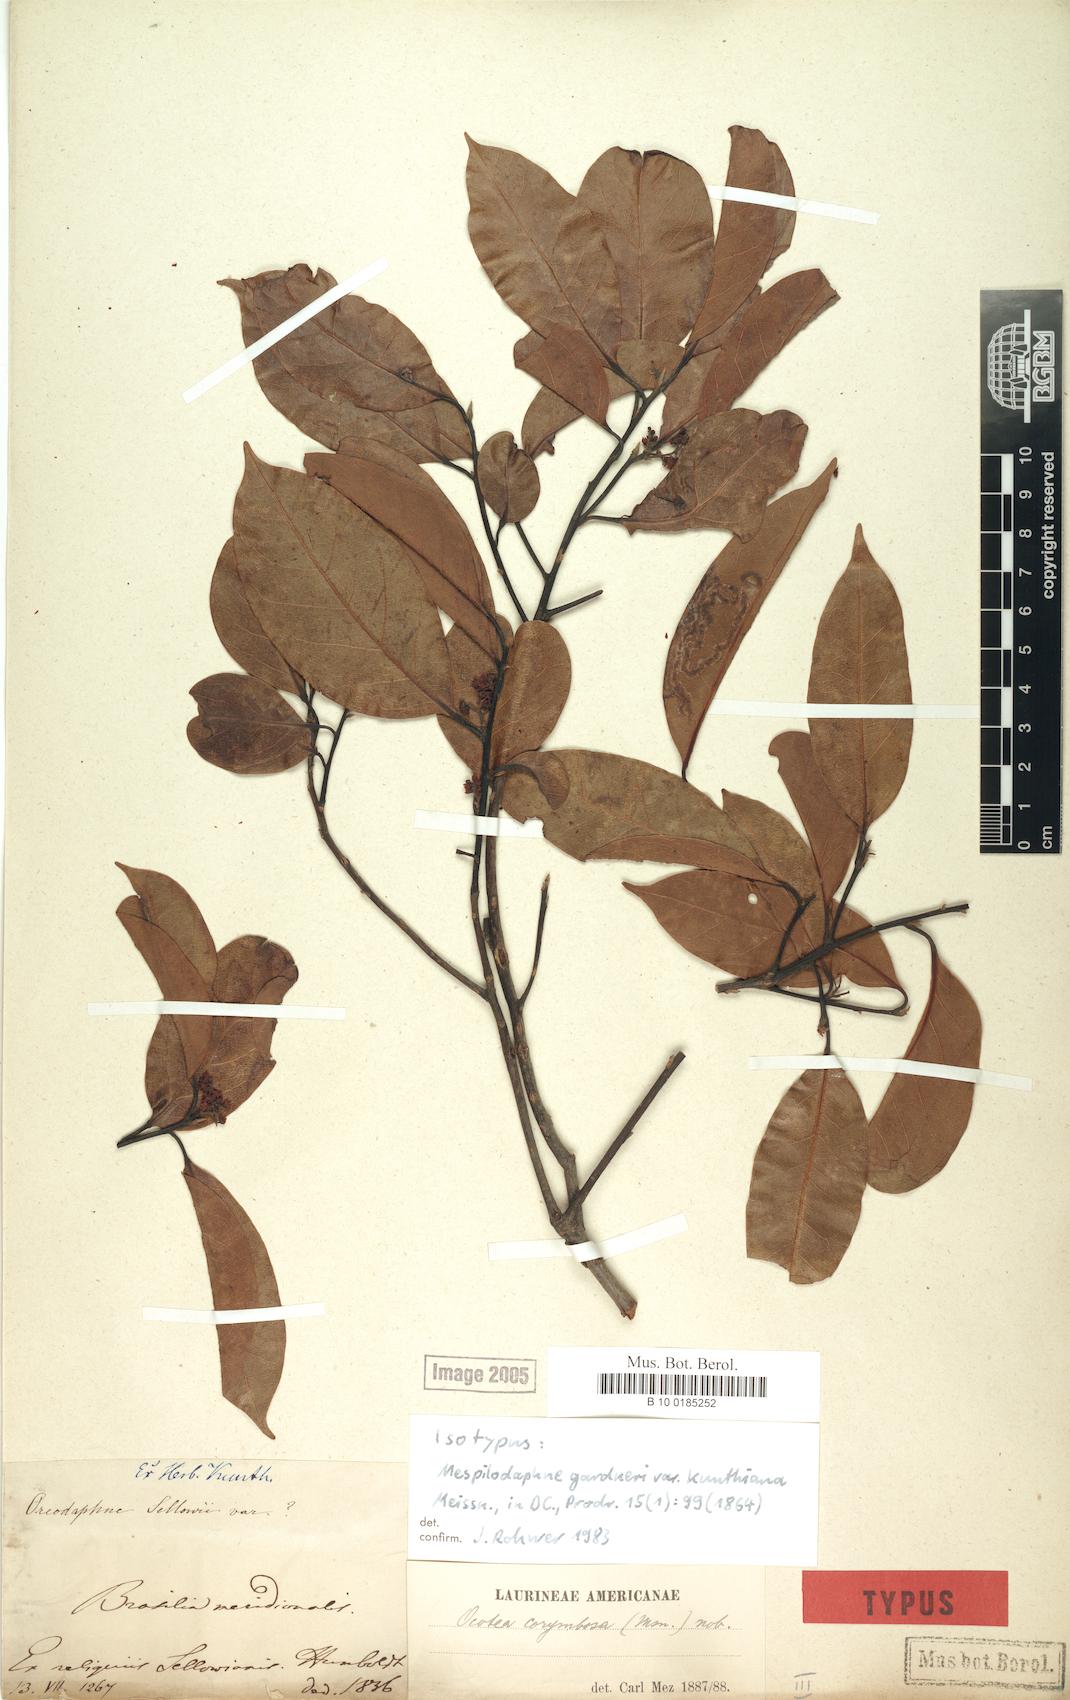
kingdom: Plantae
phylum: Tracheophyta
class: Magnoliopsida
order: Laurales
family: Lauraceae
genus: Mespilodaphne
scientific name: Mespilodaphne corymbosa
